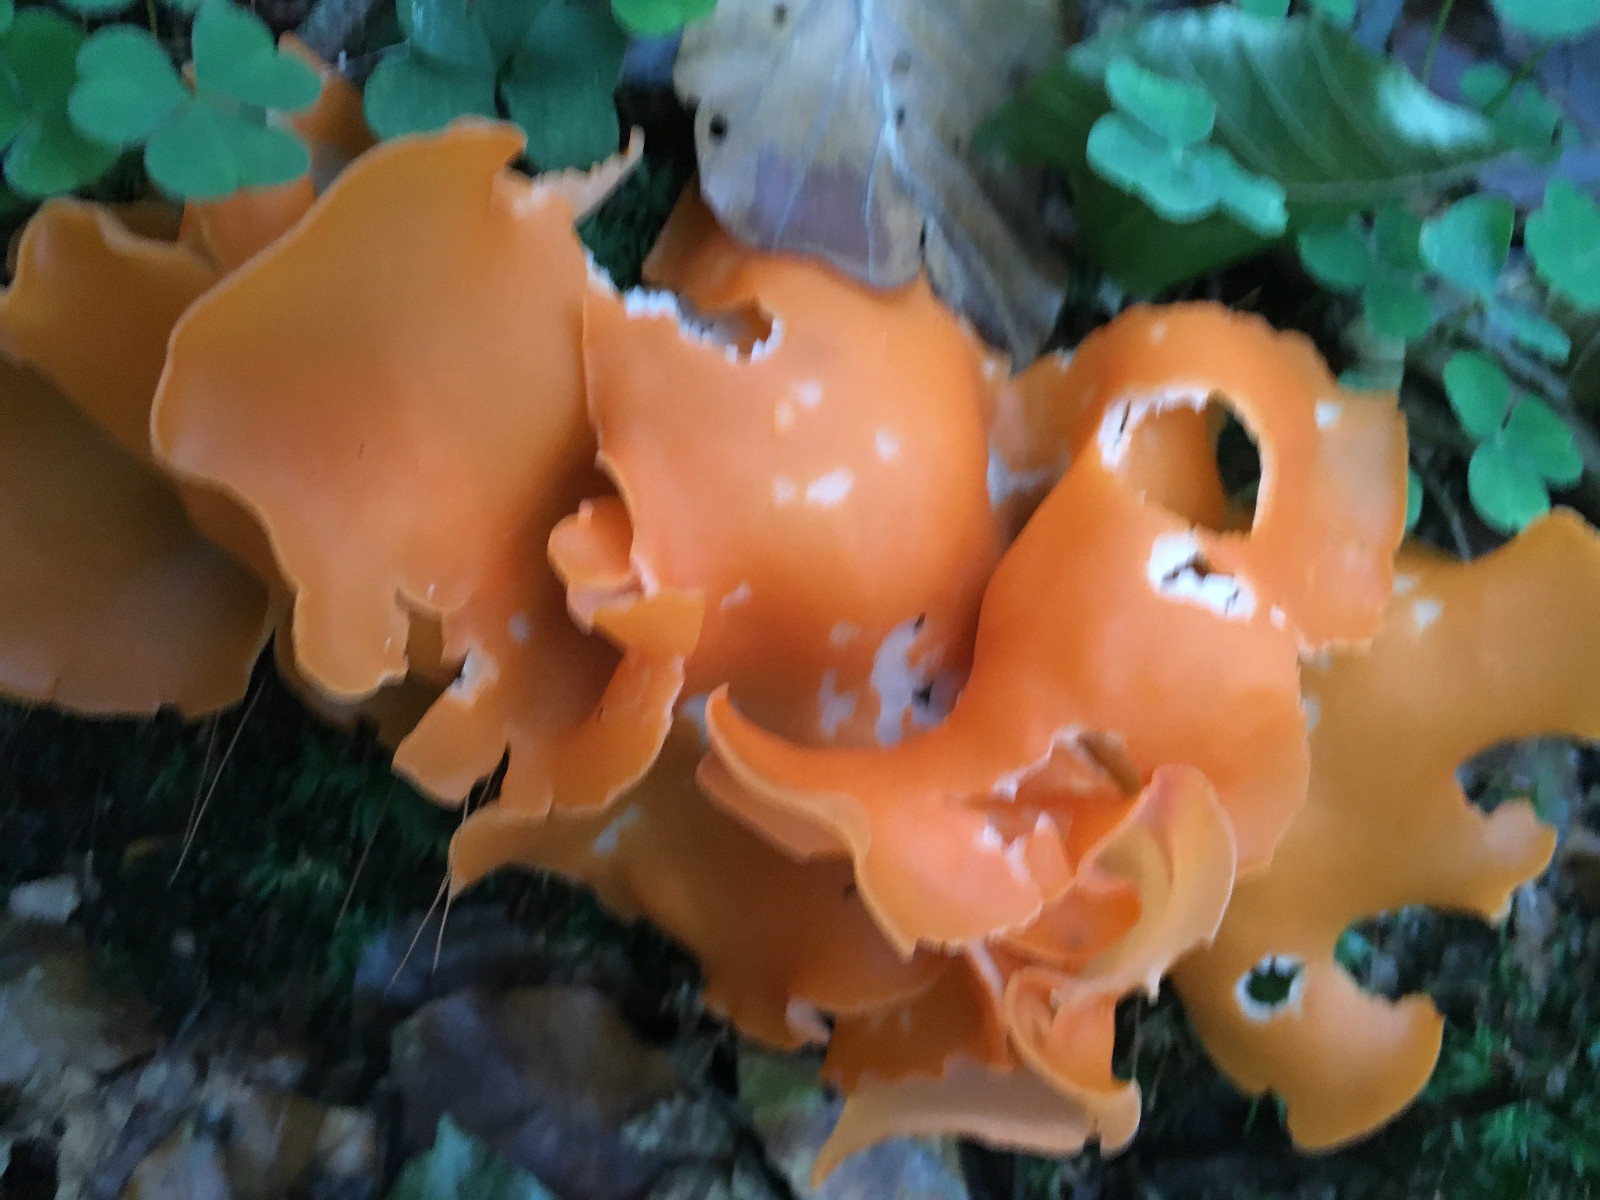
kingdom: Fungi
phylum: Ascomycota
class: Pezizomycetes
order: Pezizales
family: Pyronemataceae
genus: Aleuria
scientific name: Aleuria aurantia
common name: almindelig orangebæger
